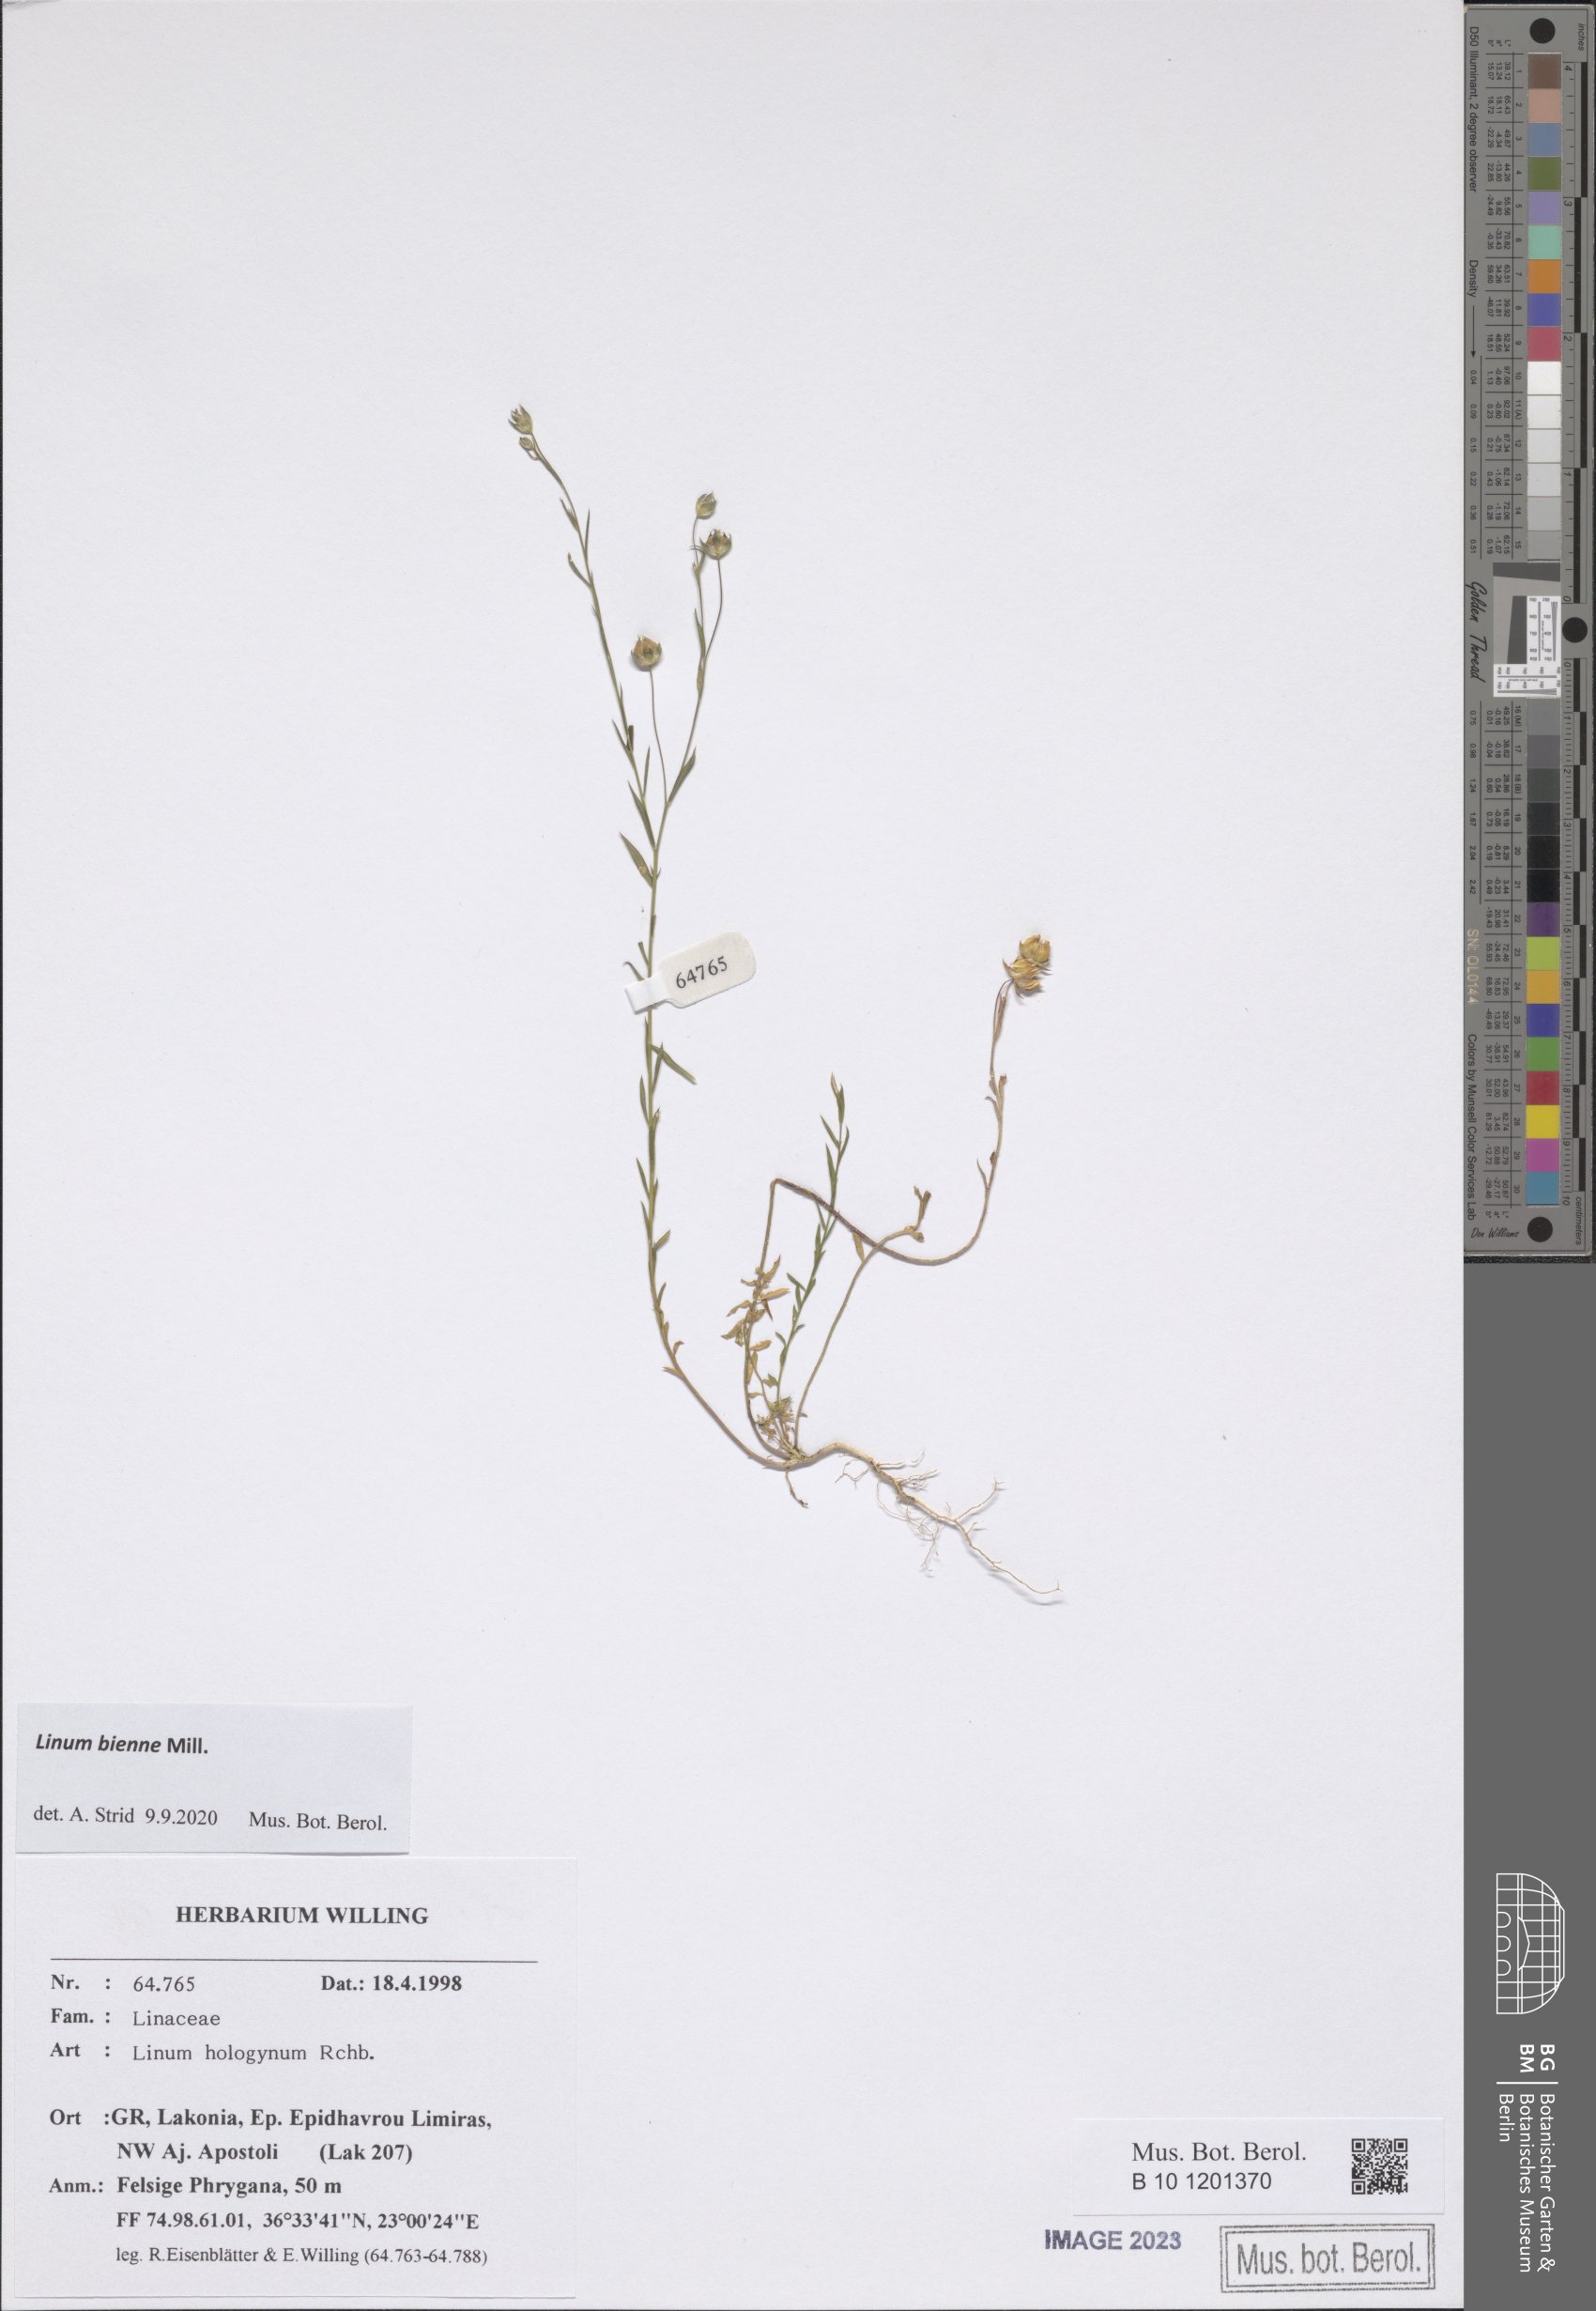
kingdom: Plantae
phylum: Tracheophyta
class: Magnoliopsida
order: Malpighiales
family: Linaceae
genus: Linum
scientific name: Linum bienne
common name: Pale flax
